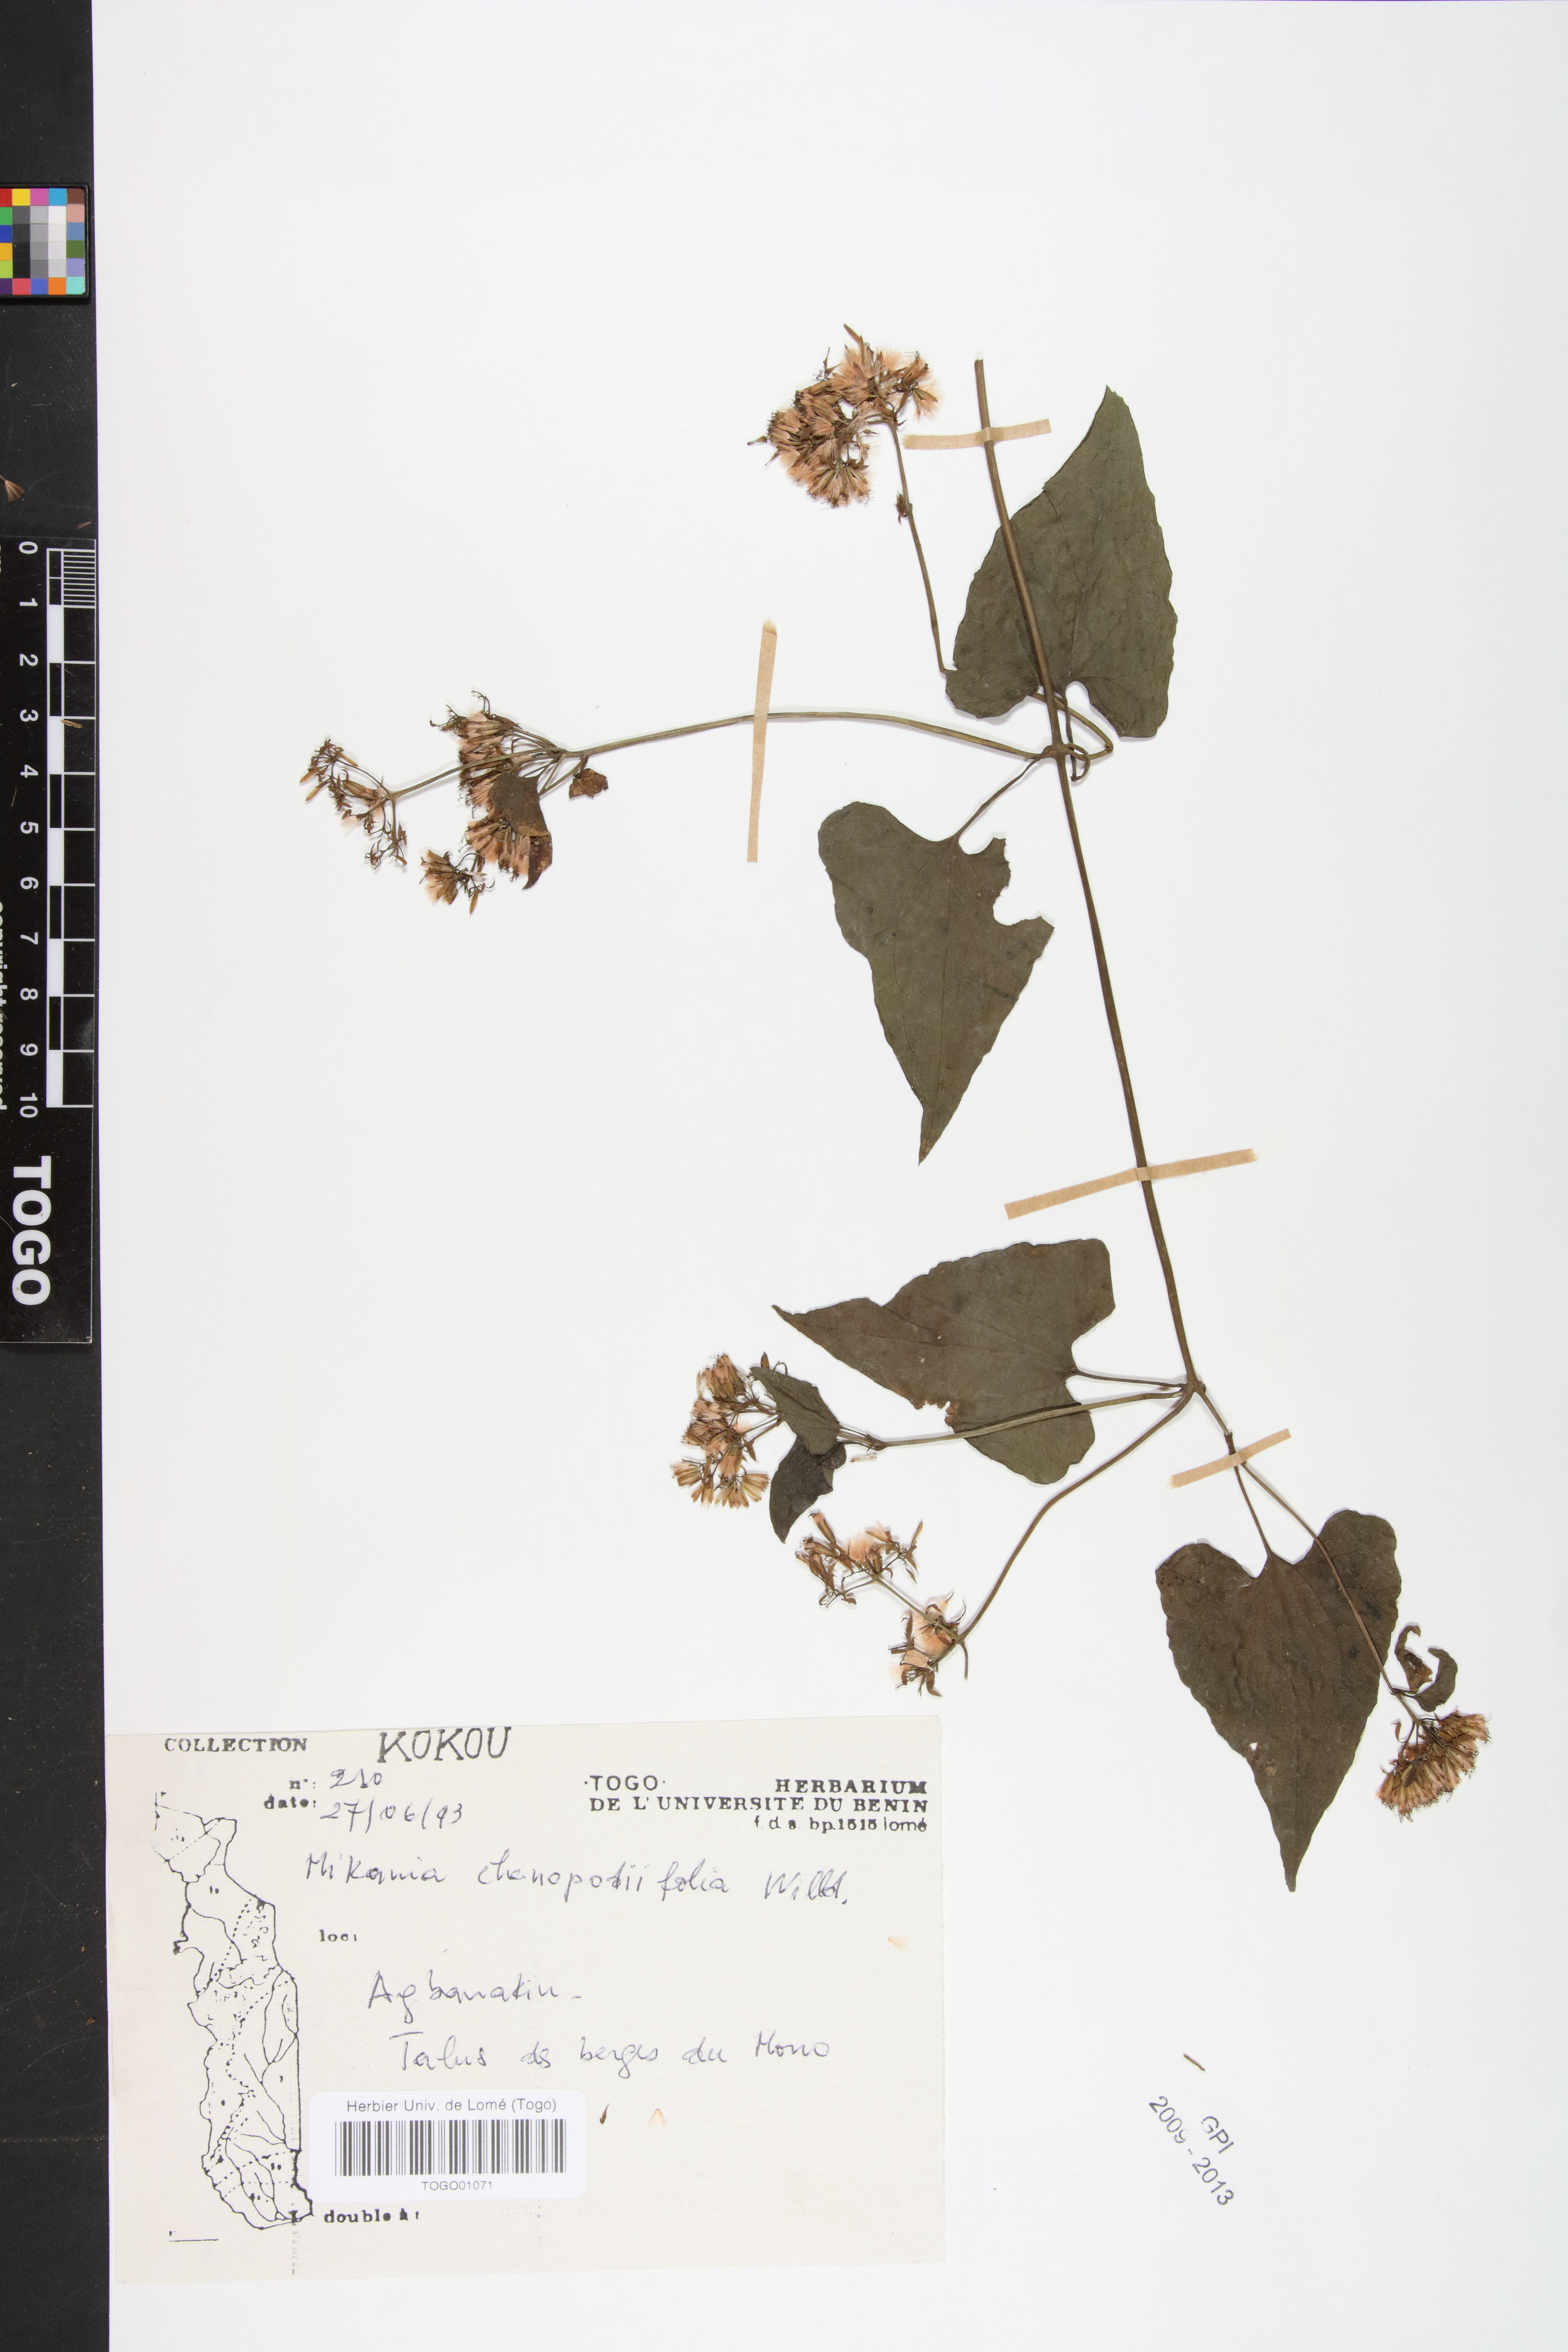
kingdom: Plantae
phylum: Tracheophyta
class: Magnoliopsida
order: Asterales
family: Asteraceae
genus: Mikania
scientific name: Mikania chenopodifolia
